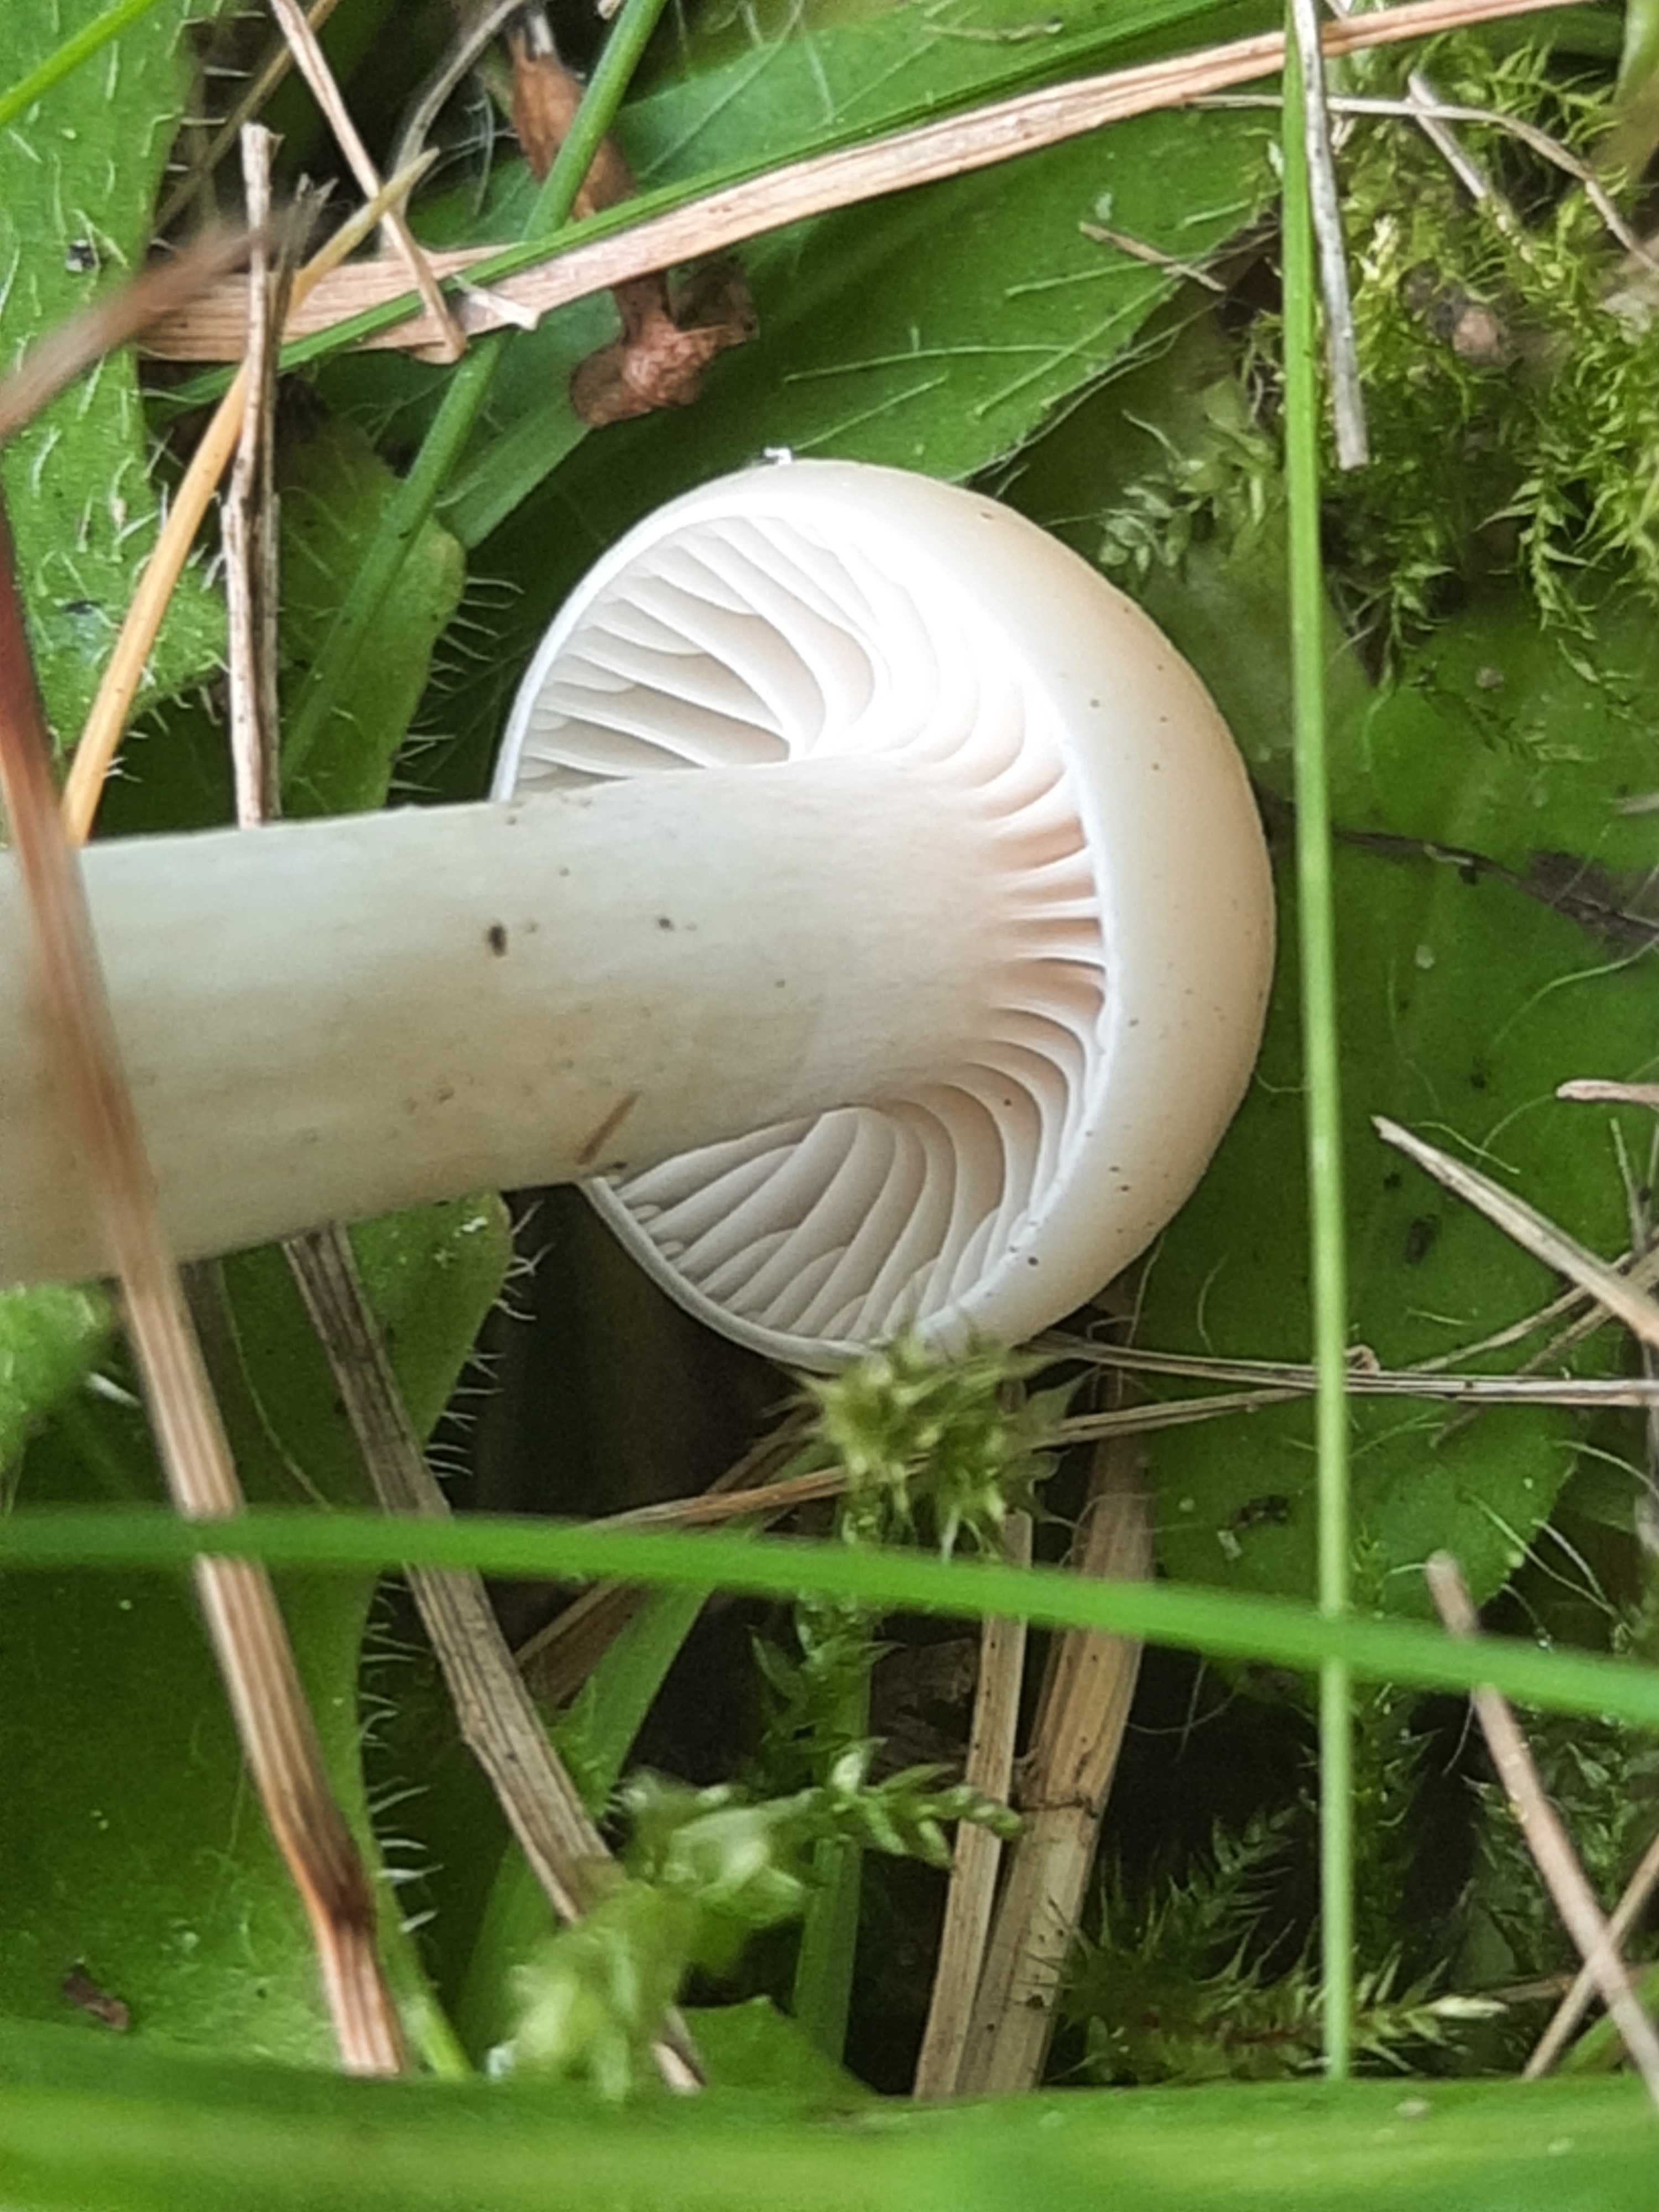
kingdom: Fungi
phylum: Basidiomycota
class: Agaricomycetes
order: Agaricales
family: Hygrophoraceae
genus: Cuphophyllus
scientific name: Cuphophyllus virgineus
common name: snehvid vokshat
